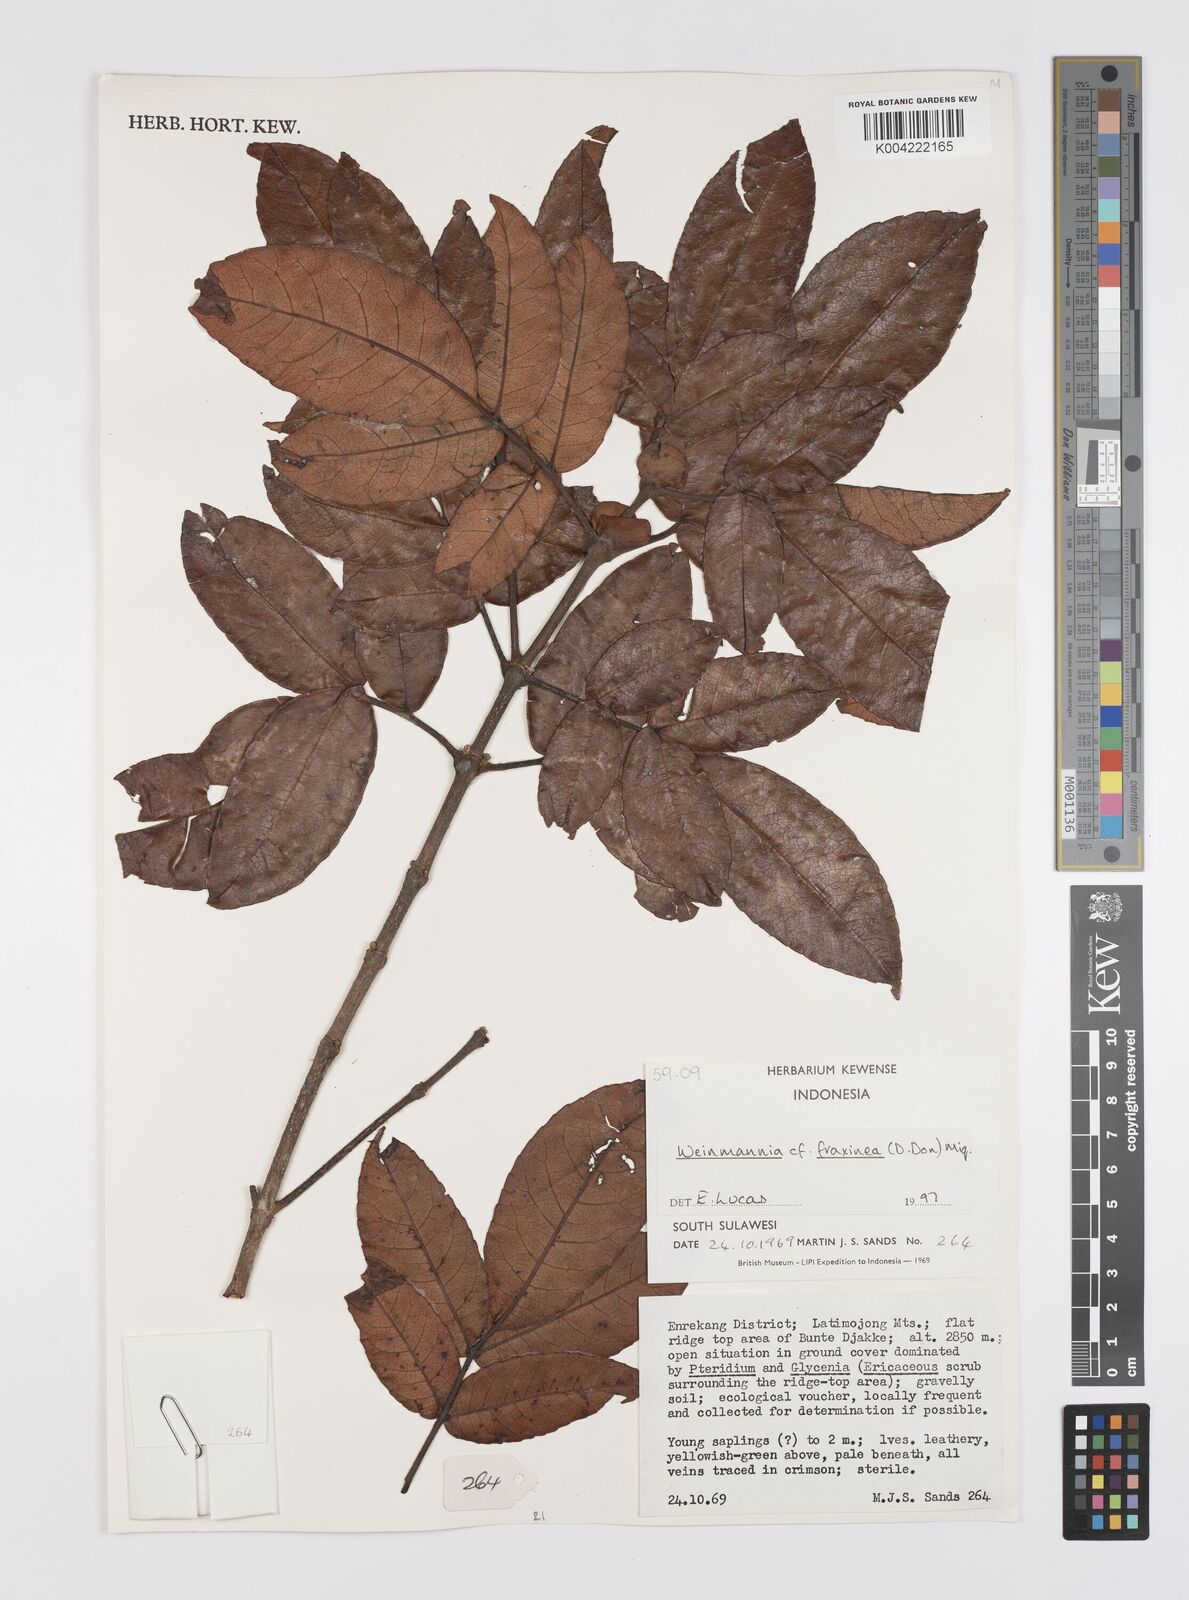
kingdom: Plantae
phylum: Tracheophyta
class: Magnoliopsida
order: Oxalidales
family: Cunoniaceae
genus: Weinmannia
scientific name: Weinmannia
